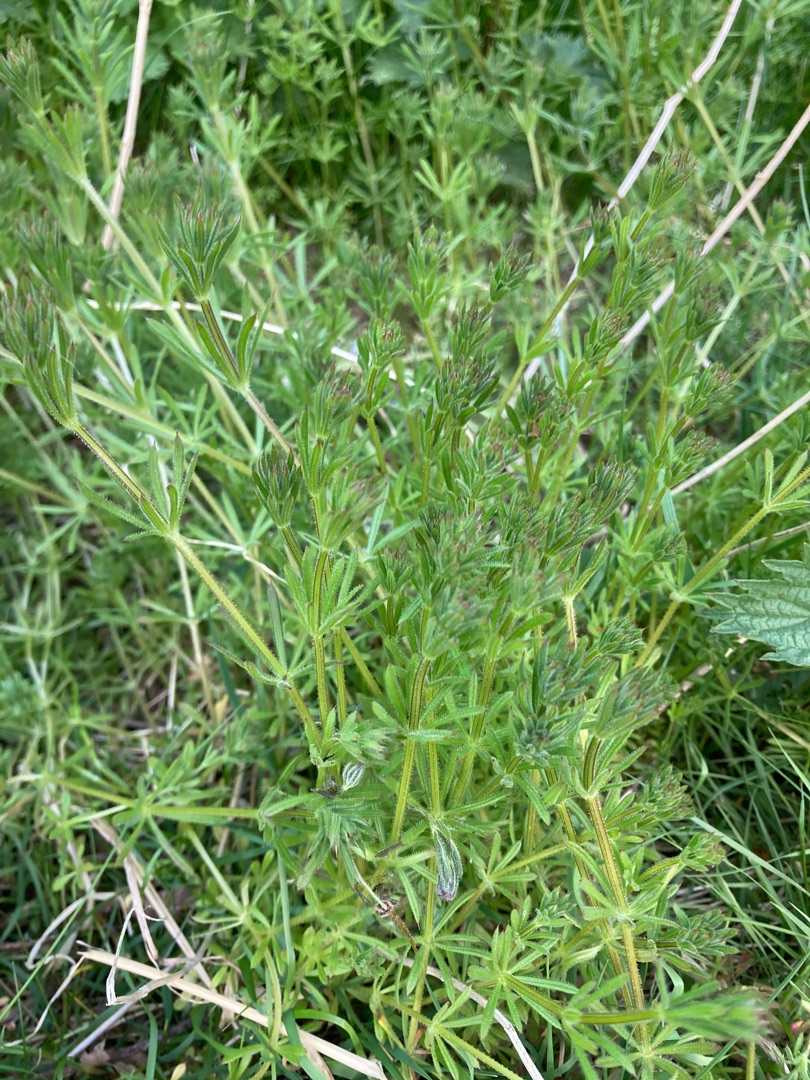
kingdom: Plantae
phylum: Tracheophyta
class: Magnoliopsida
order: Gentianales
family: Rubiaceae
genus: Galium
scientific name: Galium aparine
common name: Burre-snerre
